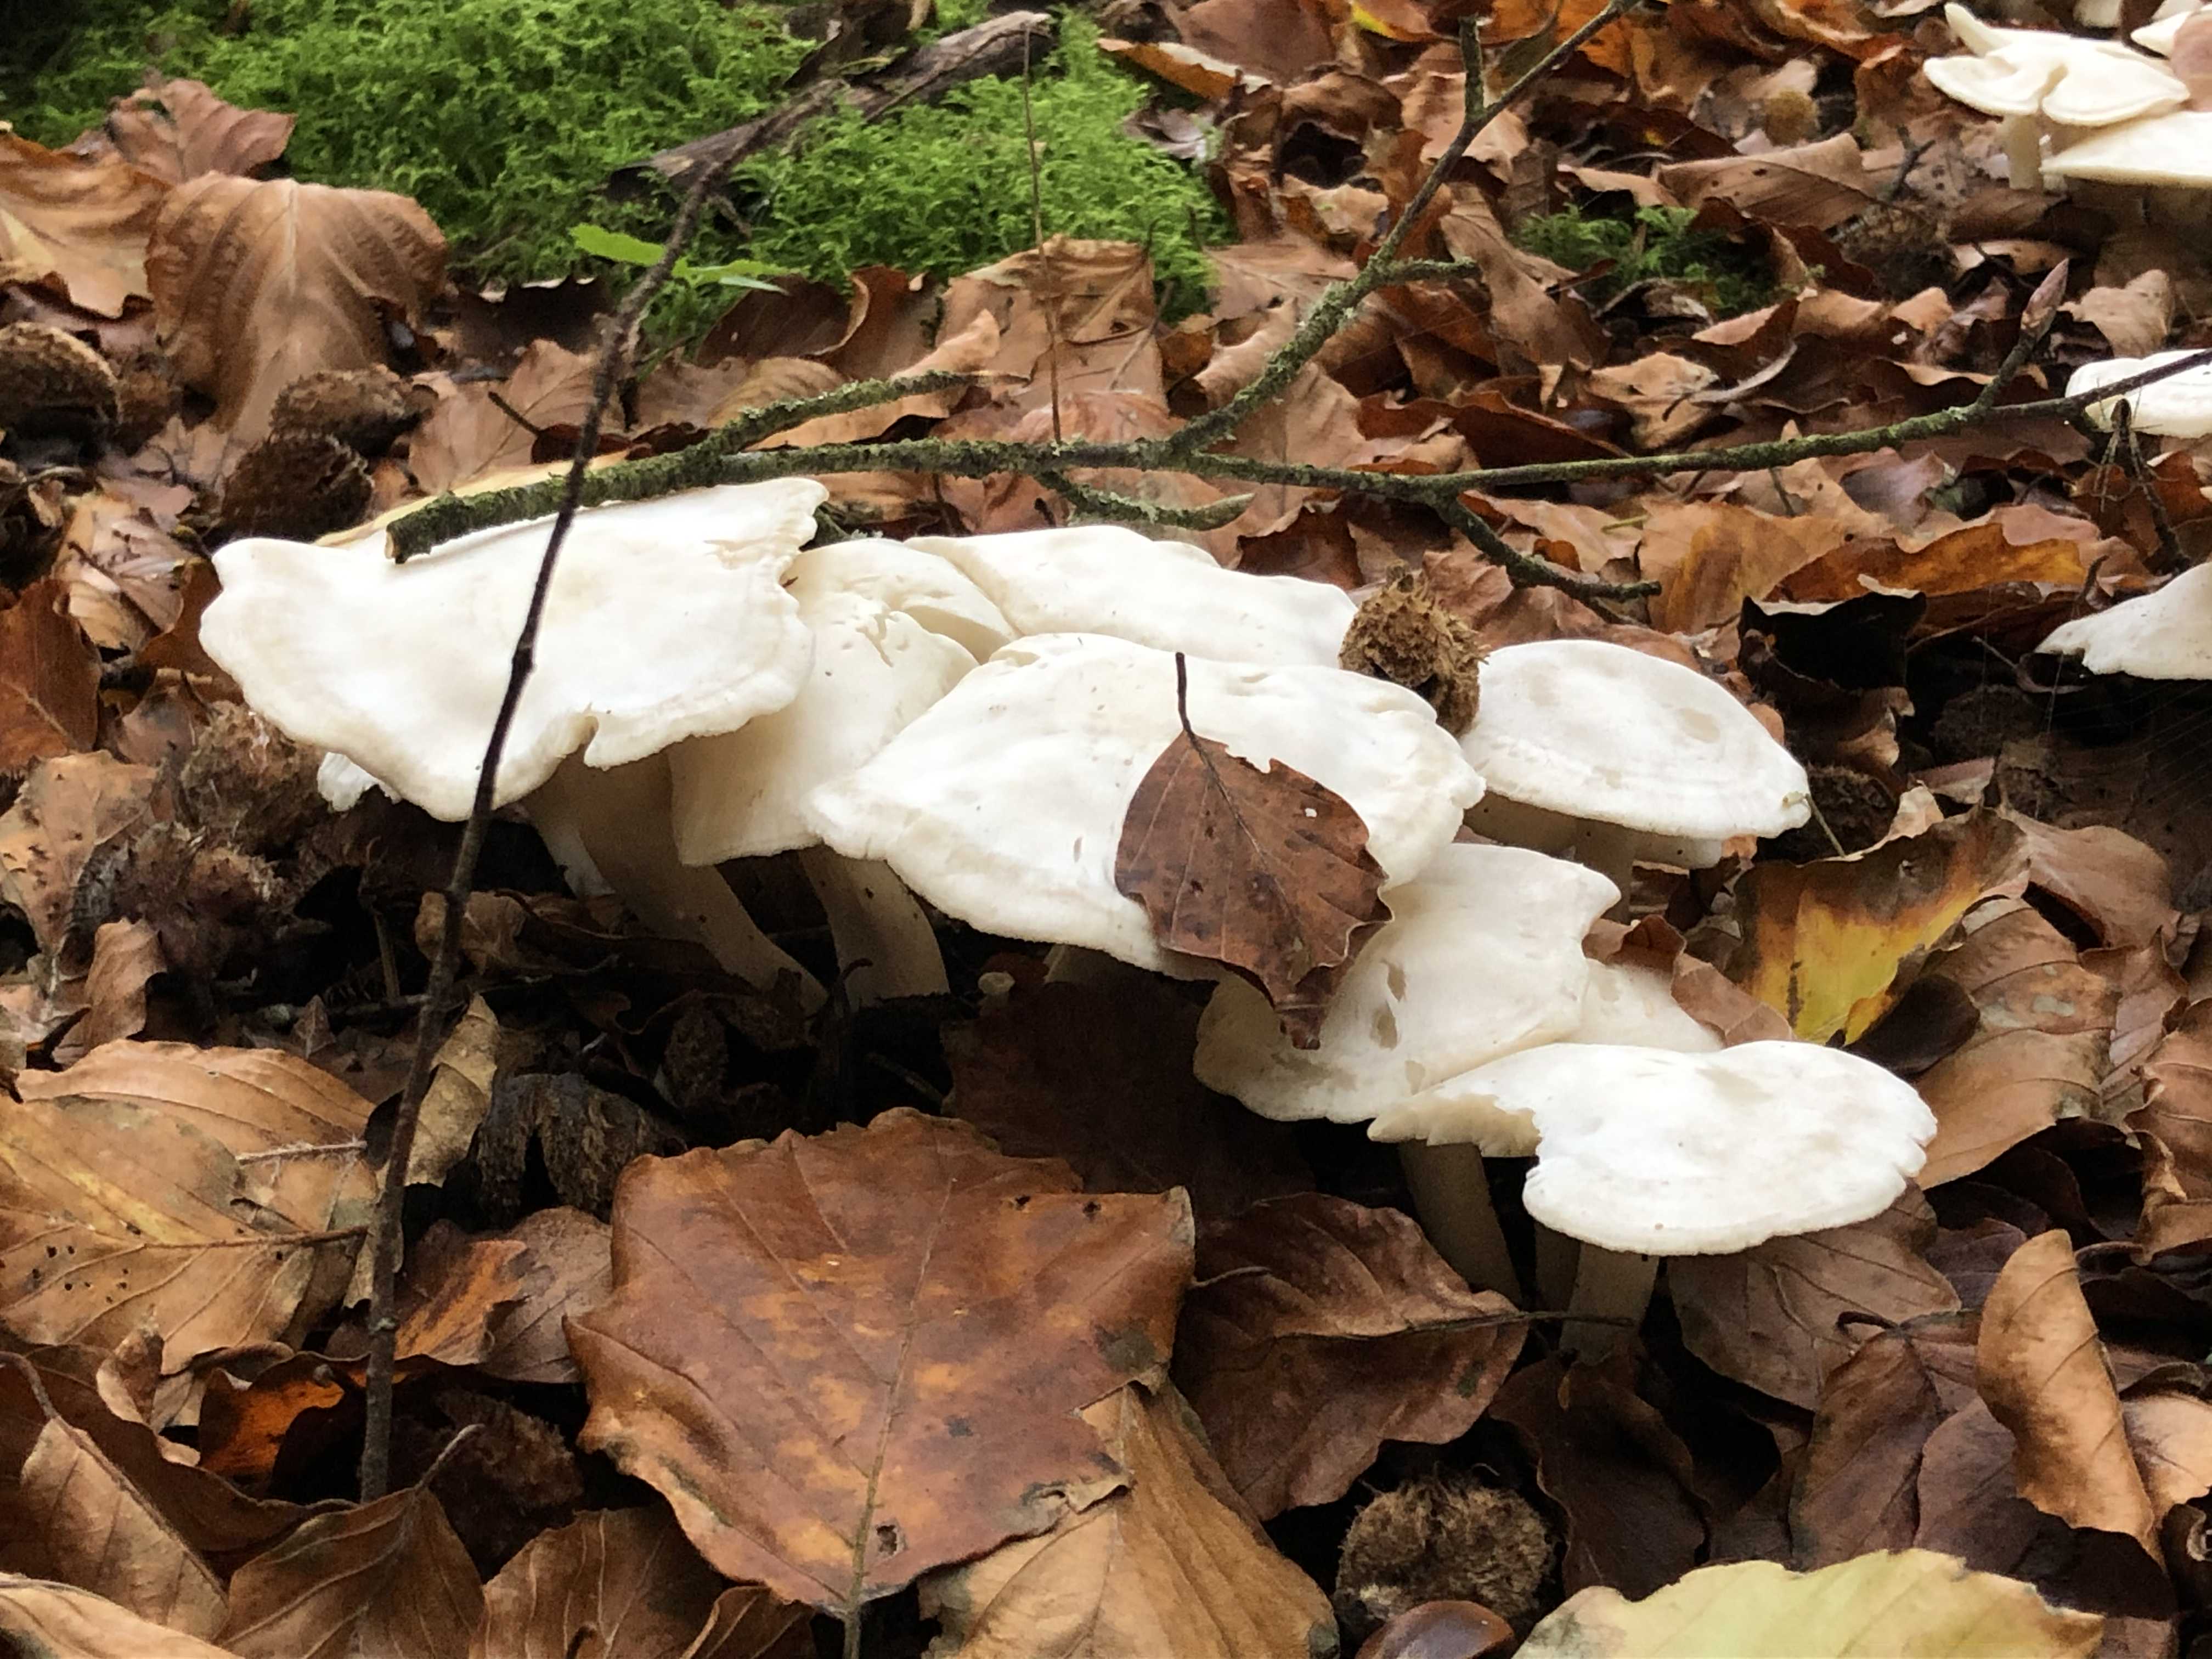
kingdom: Fungi
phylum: Basidiomycota
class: Agaricomycetes
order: Agaricales
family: Tricholomataceae
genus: Leucocybe
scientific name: Leucocybe connata
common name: knippe-tragthat
